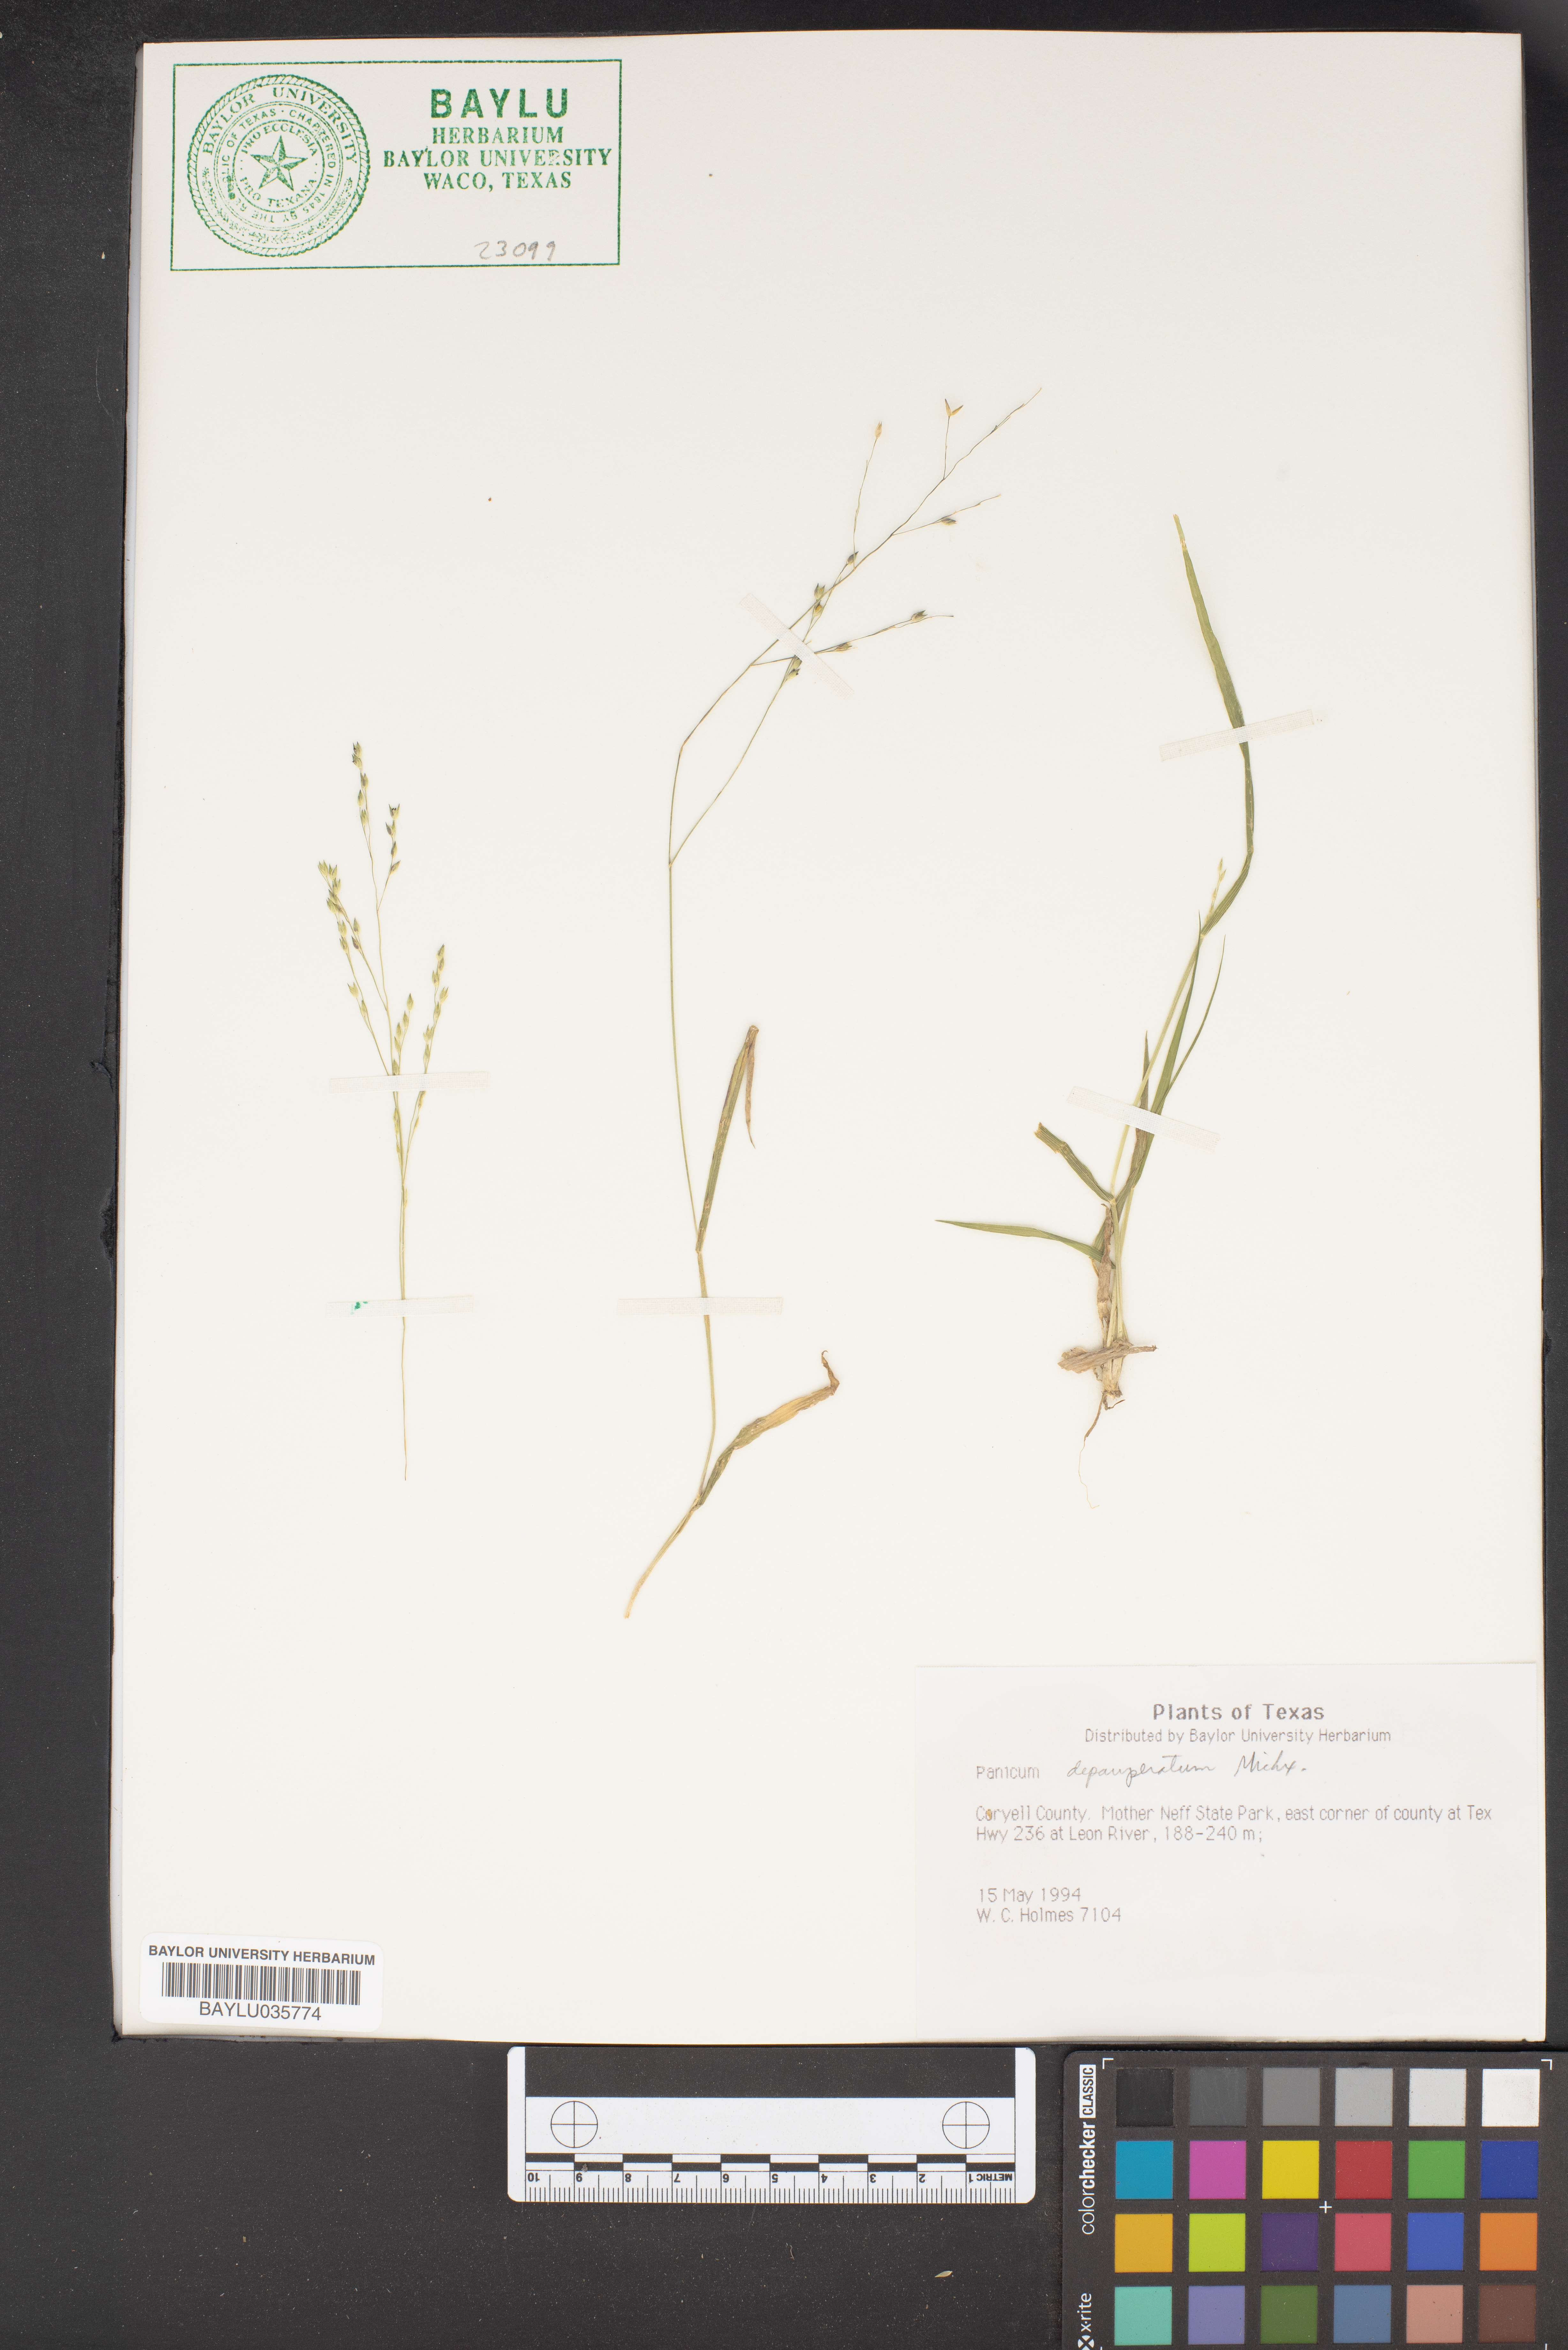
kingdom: Plantae
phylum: Tracheophyta
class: Liliopsida
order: Poales
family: Poaceae
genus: Dichanthelium
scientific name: Dichanthelium depauperatum
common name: Depauperate panicgrass
